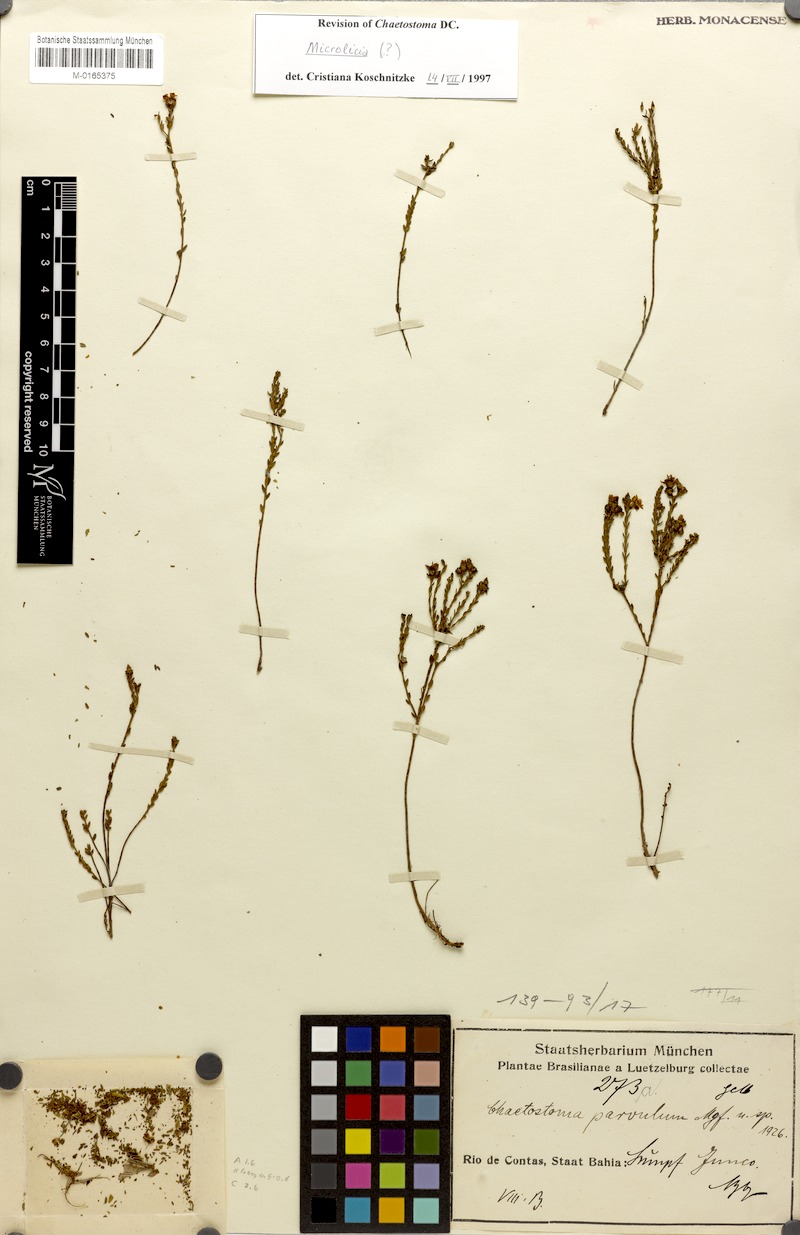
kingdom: Plantae
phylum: Tracheophyta
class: Magnoliopsida
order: Myrtales
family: Melastomataceae
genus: Microlicia
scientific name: Microlicia parvula
